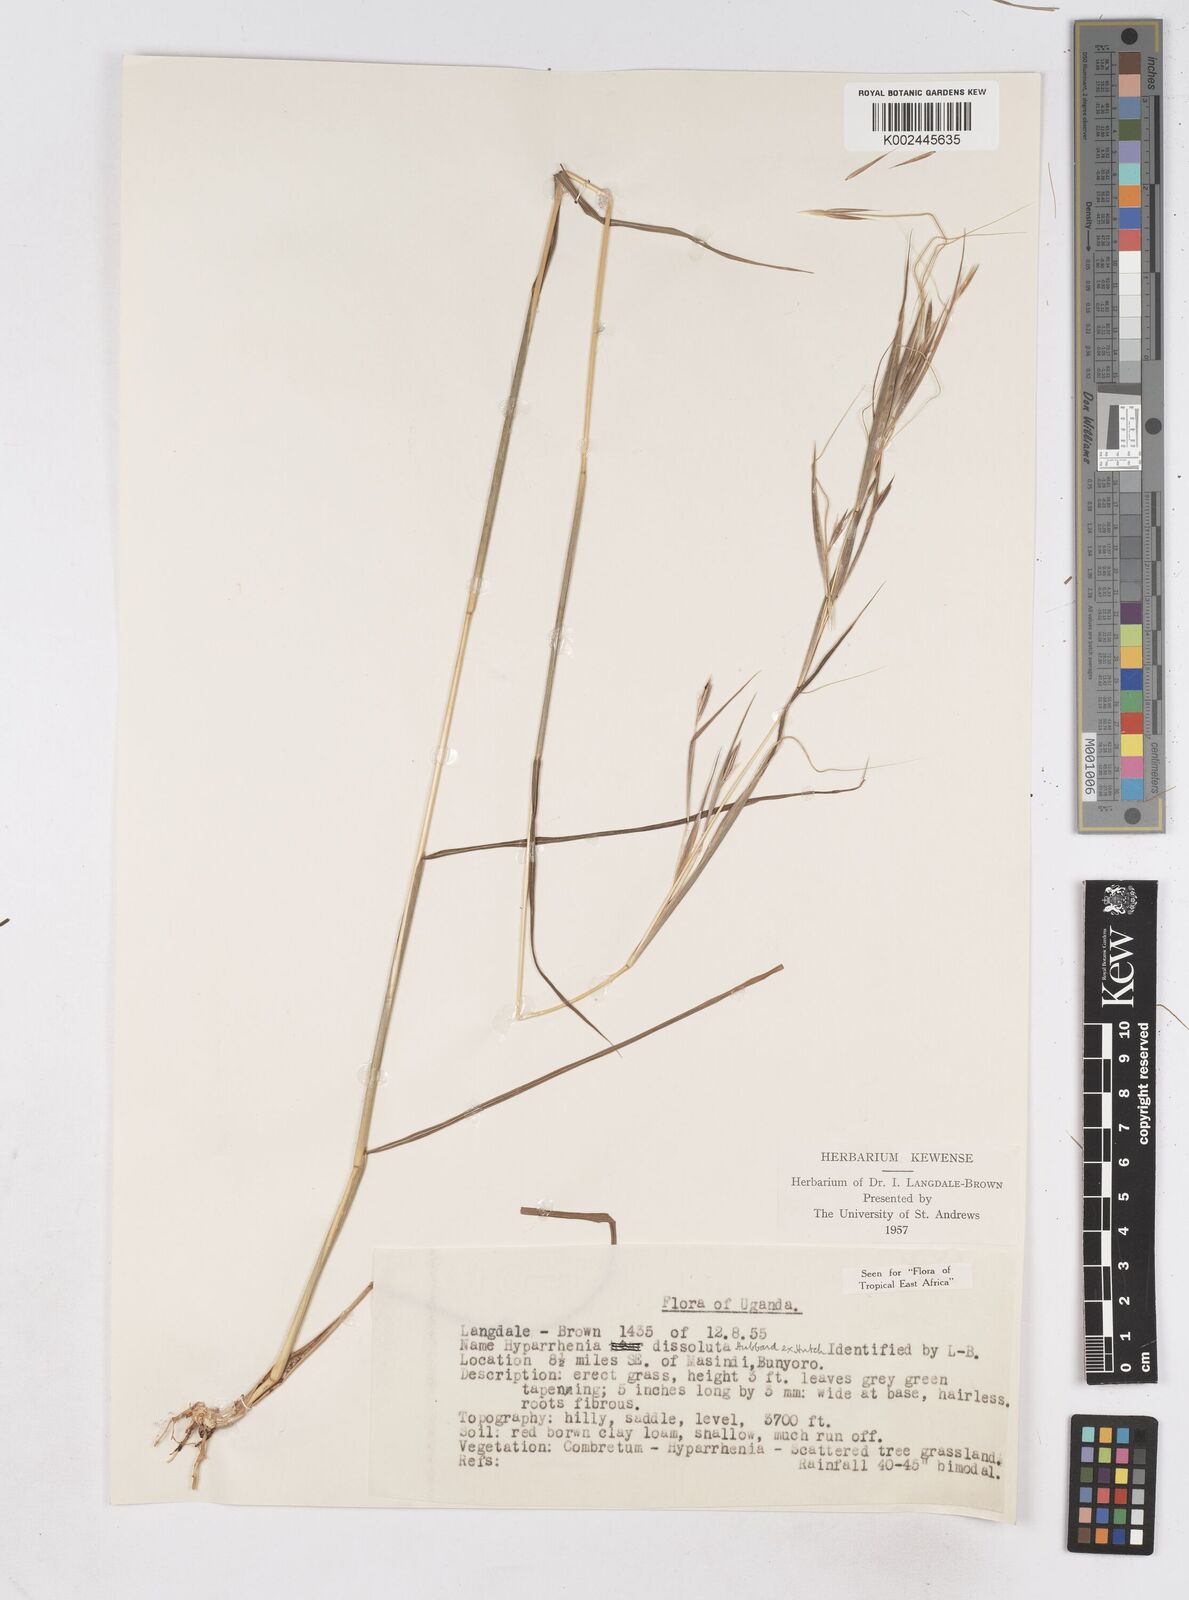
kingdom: Plantae
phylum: Tracheophyta
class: Liliopsida
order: Poales
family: Poaceae
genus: Hyperthelia
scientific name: Hyperthelia dissoluta
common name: Yellow thatching grass
